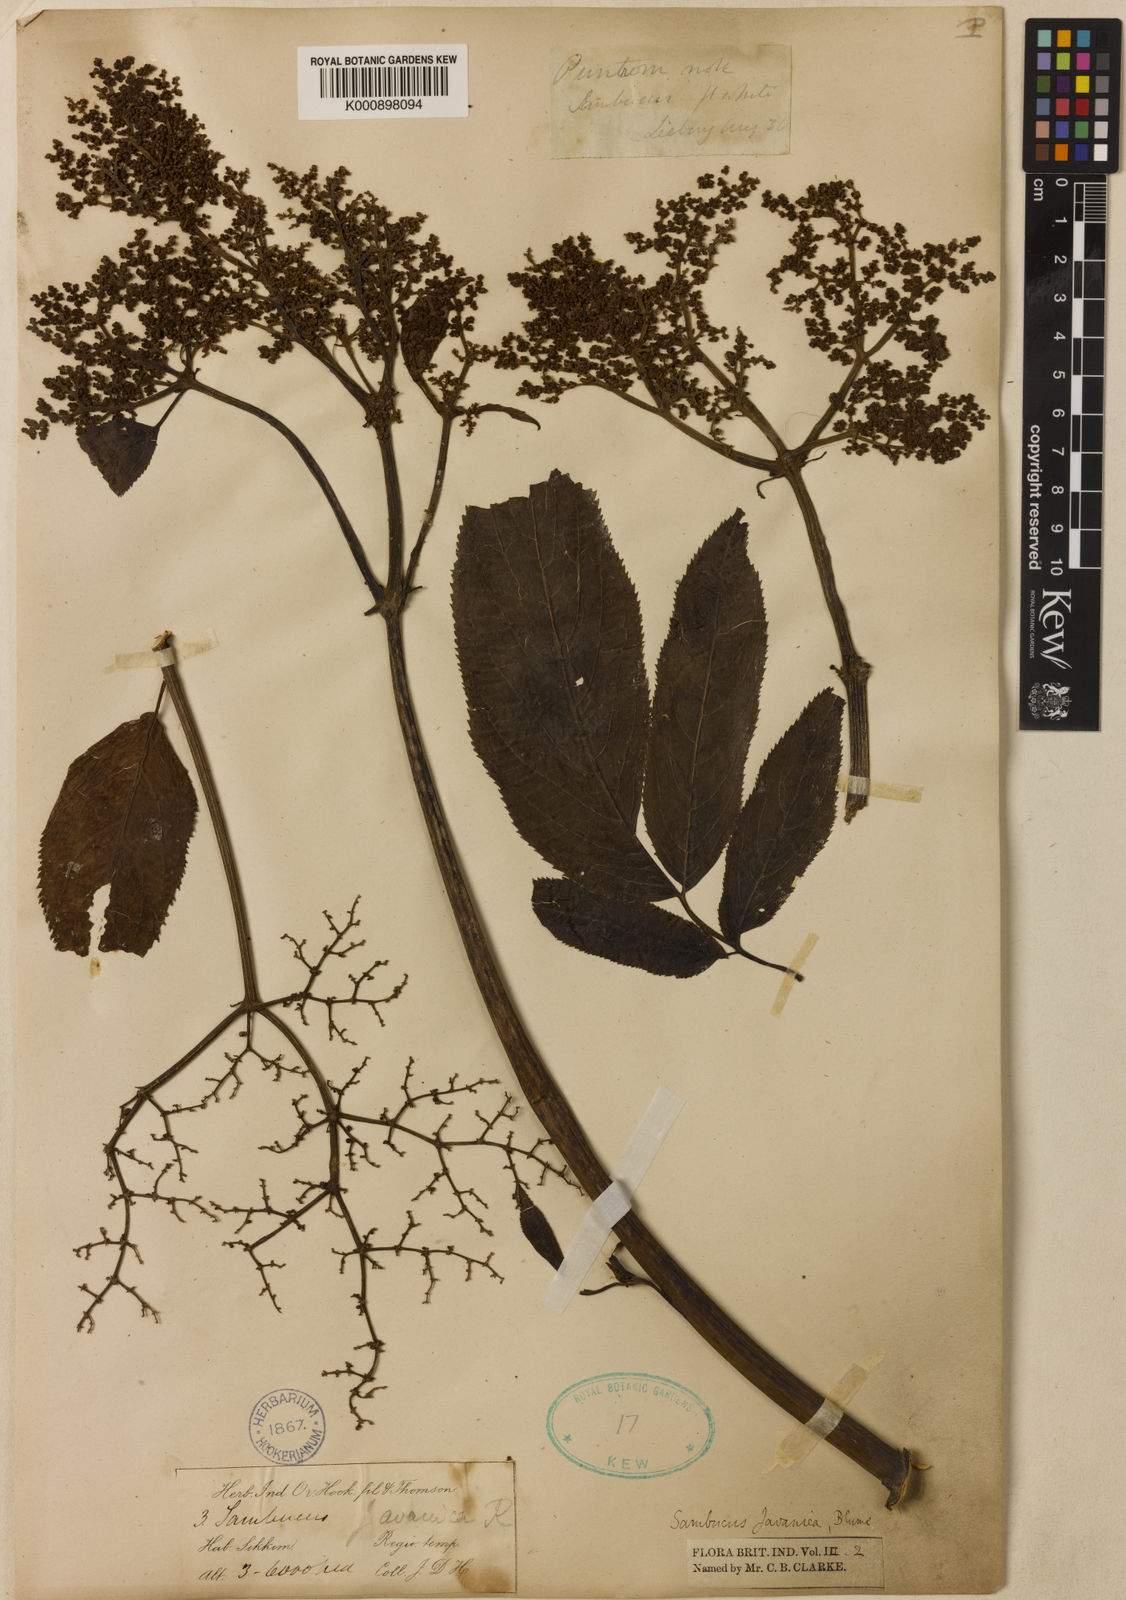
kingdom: Plantae
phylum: Tracheophyta
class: Magnoliopsida
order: Dipsacales
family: Viburnaceae
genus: Sambucus
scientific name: Sambucus javanica
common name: Chinese elder
